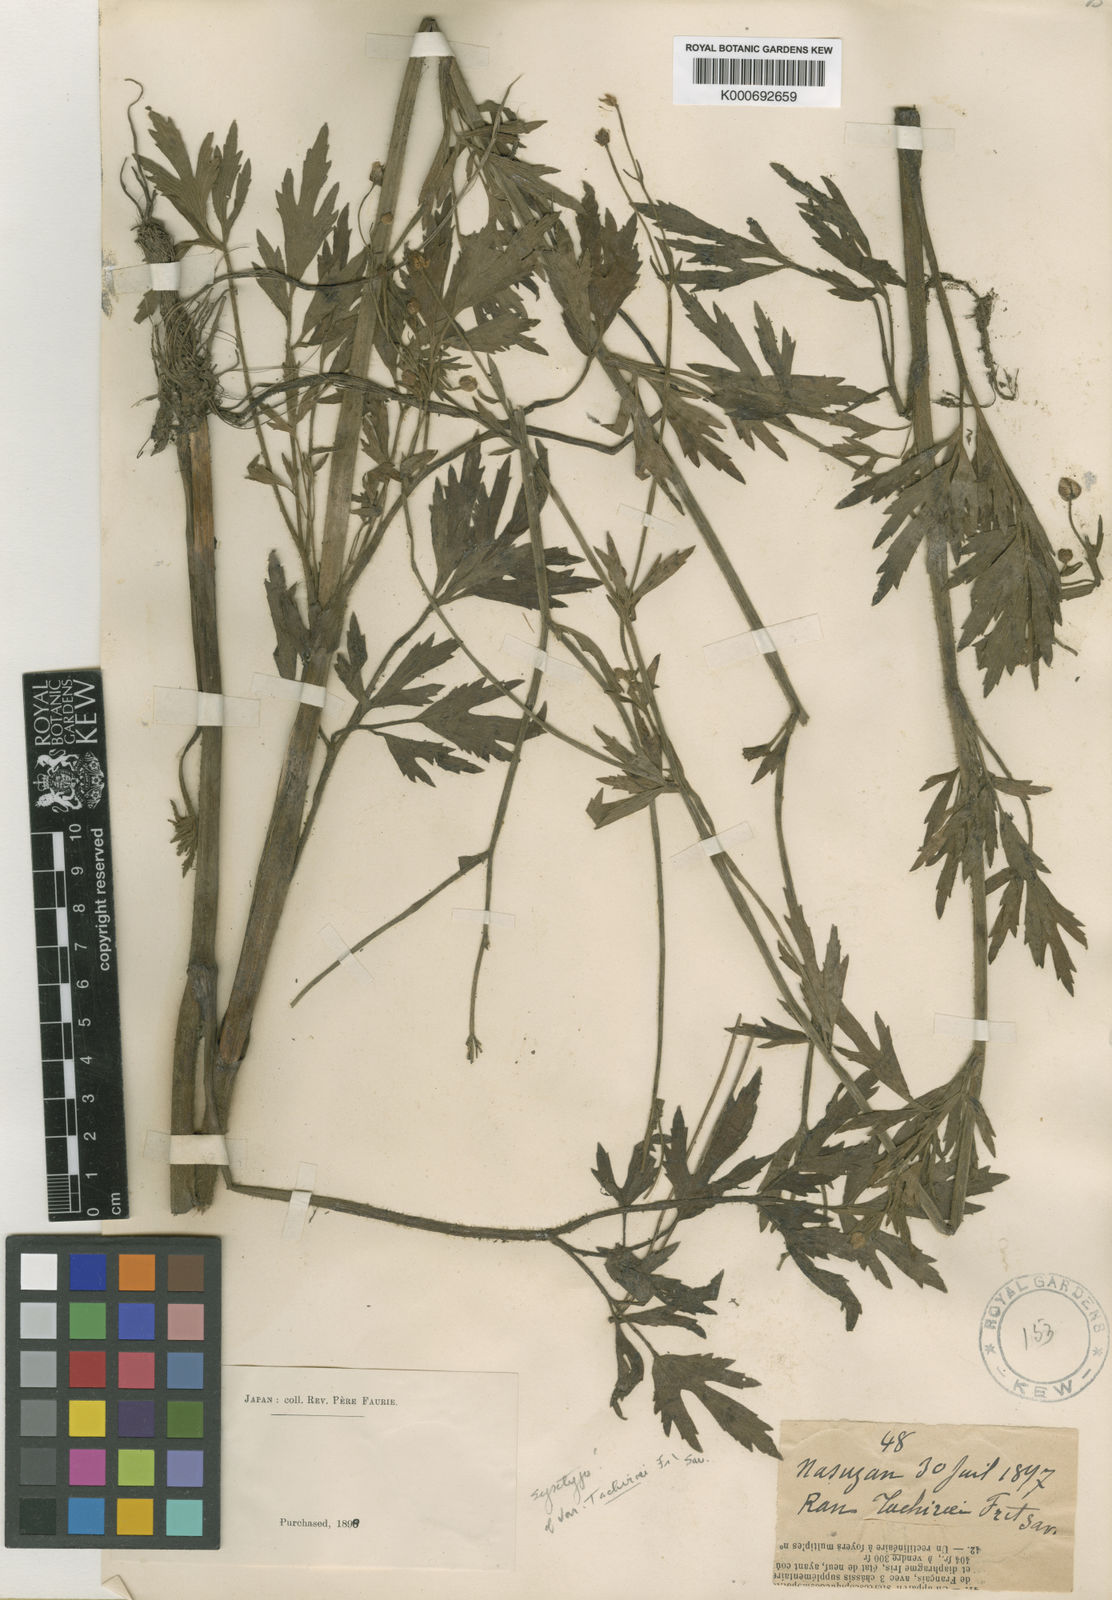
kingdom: Plantae
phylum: Tracheophyta
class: Magnoliopsida
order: Ranunculales
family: Ranunculaceae
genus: Ranunculus
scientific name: Ranunculus acris
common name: Meadow buttercup
